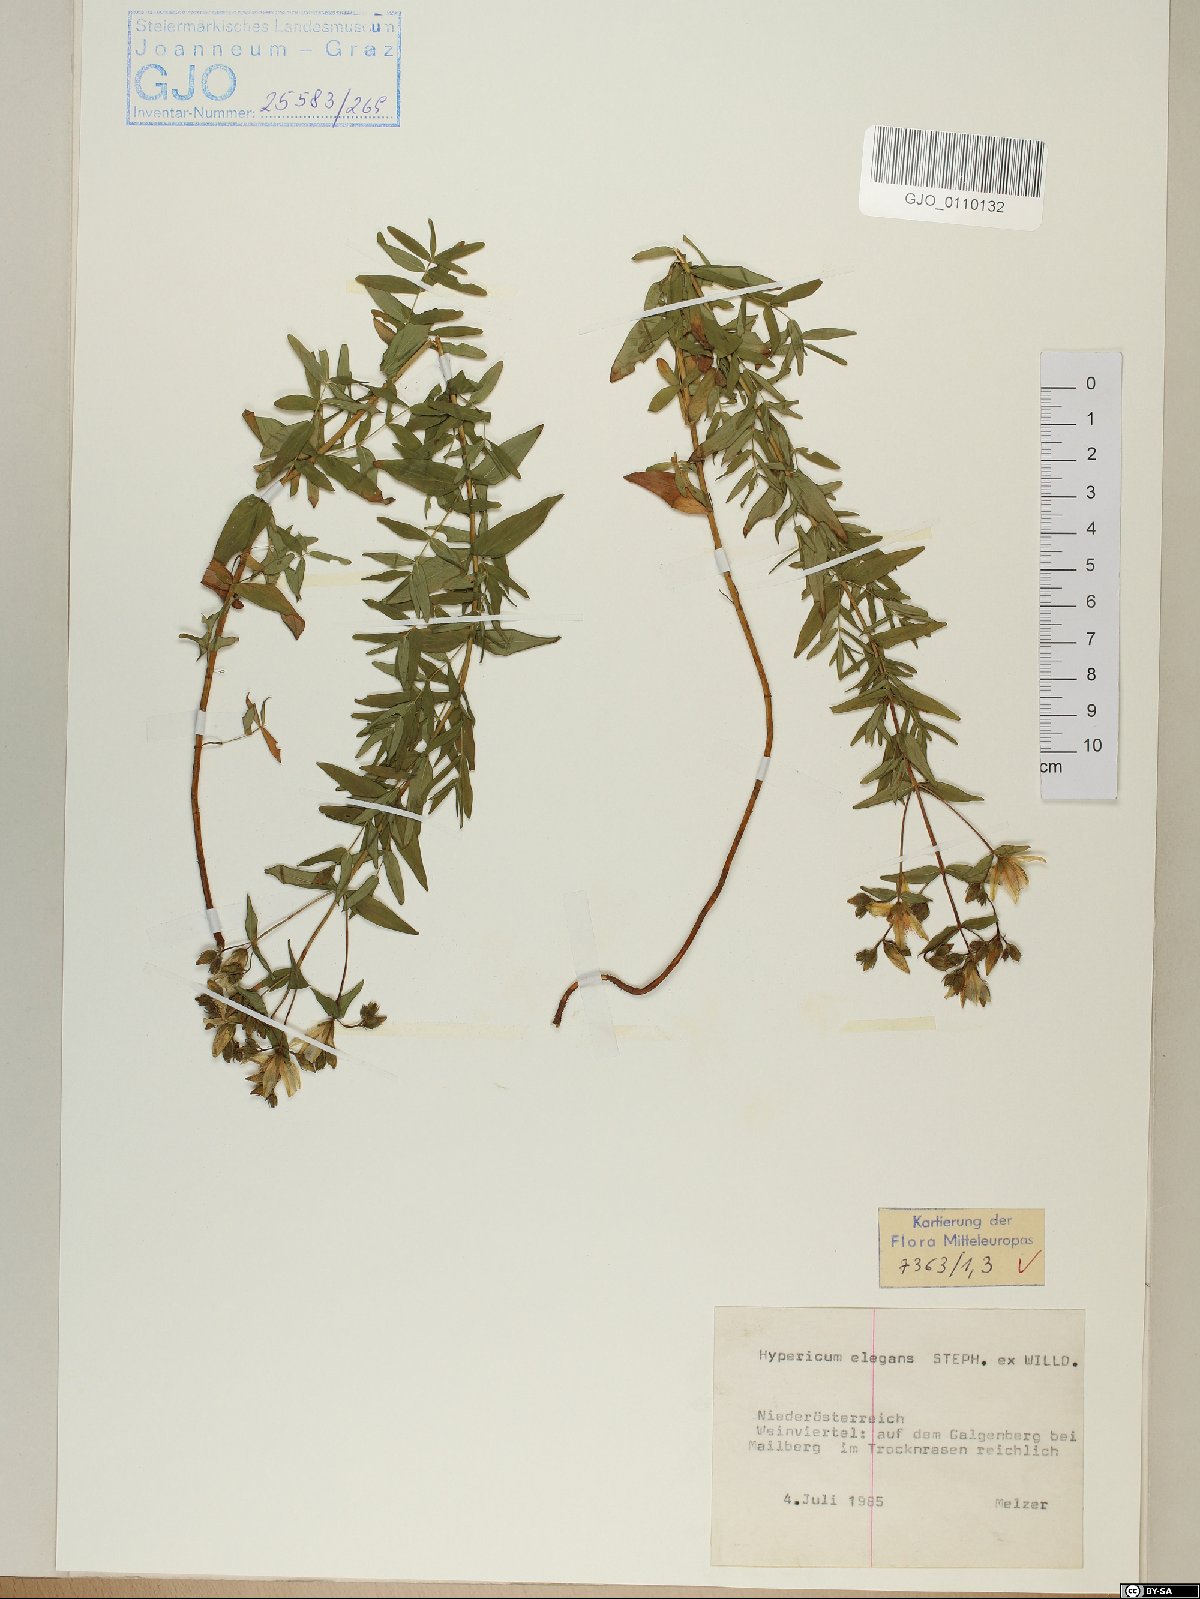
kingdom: Plantae
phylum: Tracheophyta
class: Magnoliopsida
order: Malpighiales
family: Hypericaceae
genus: Hypericum
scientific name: Hypericum elegans
